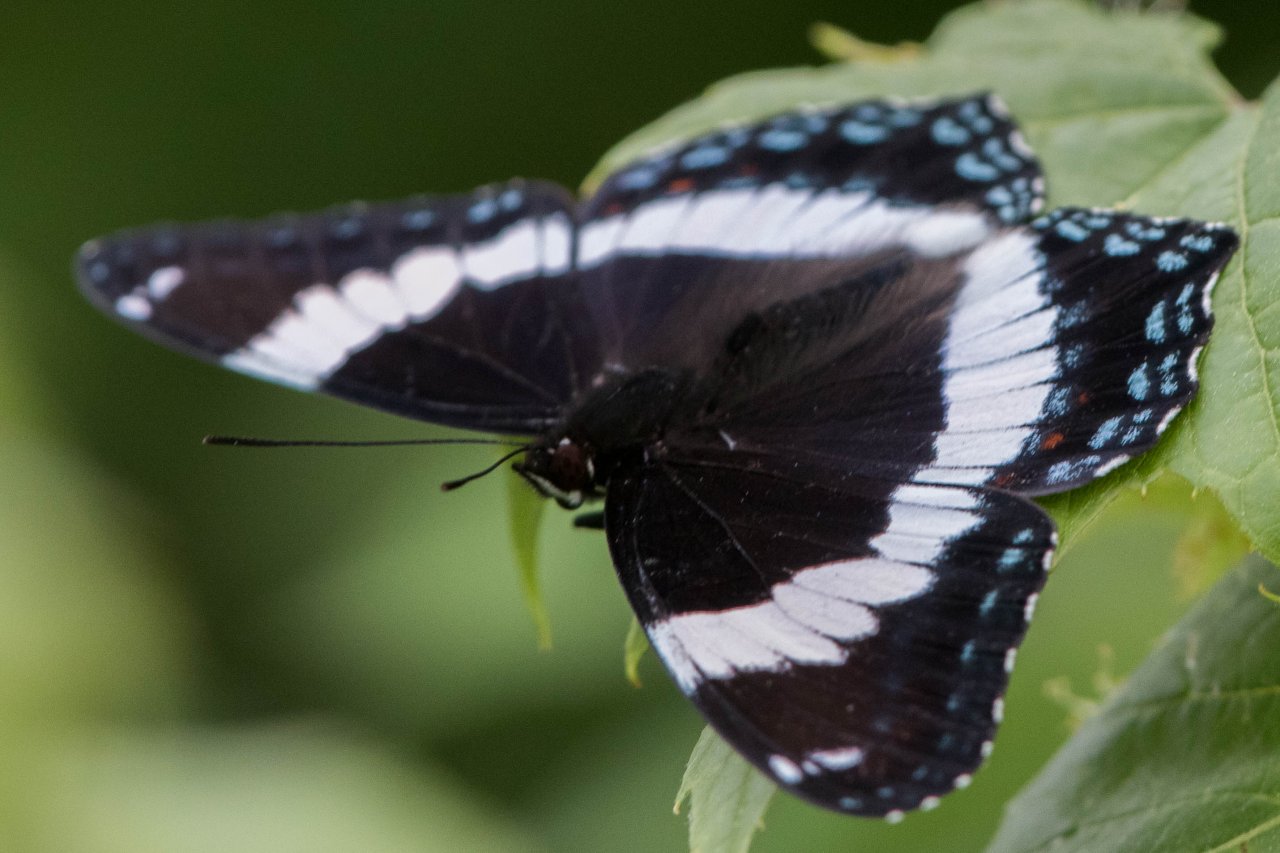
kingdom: Animalia
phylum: Arthropoda
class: Insecta
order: Lepidoptera
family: Nymphalidae
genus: Limenitis
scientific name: Limenitis arthemis
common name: Red-spotted Admiral
